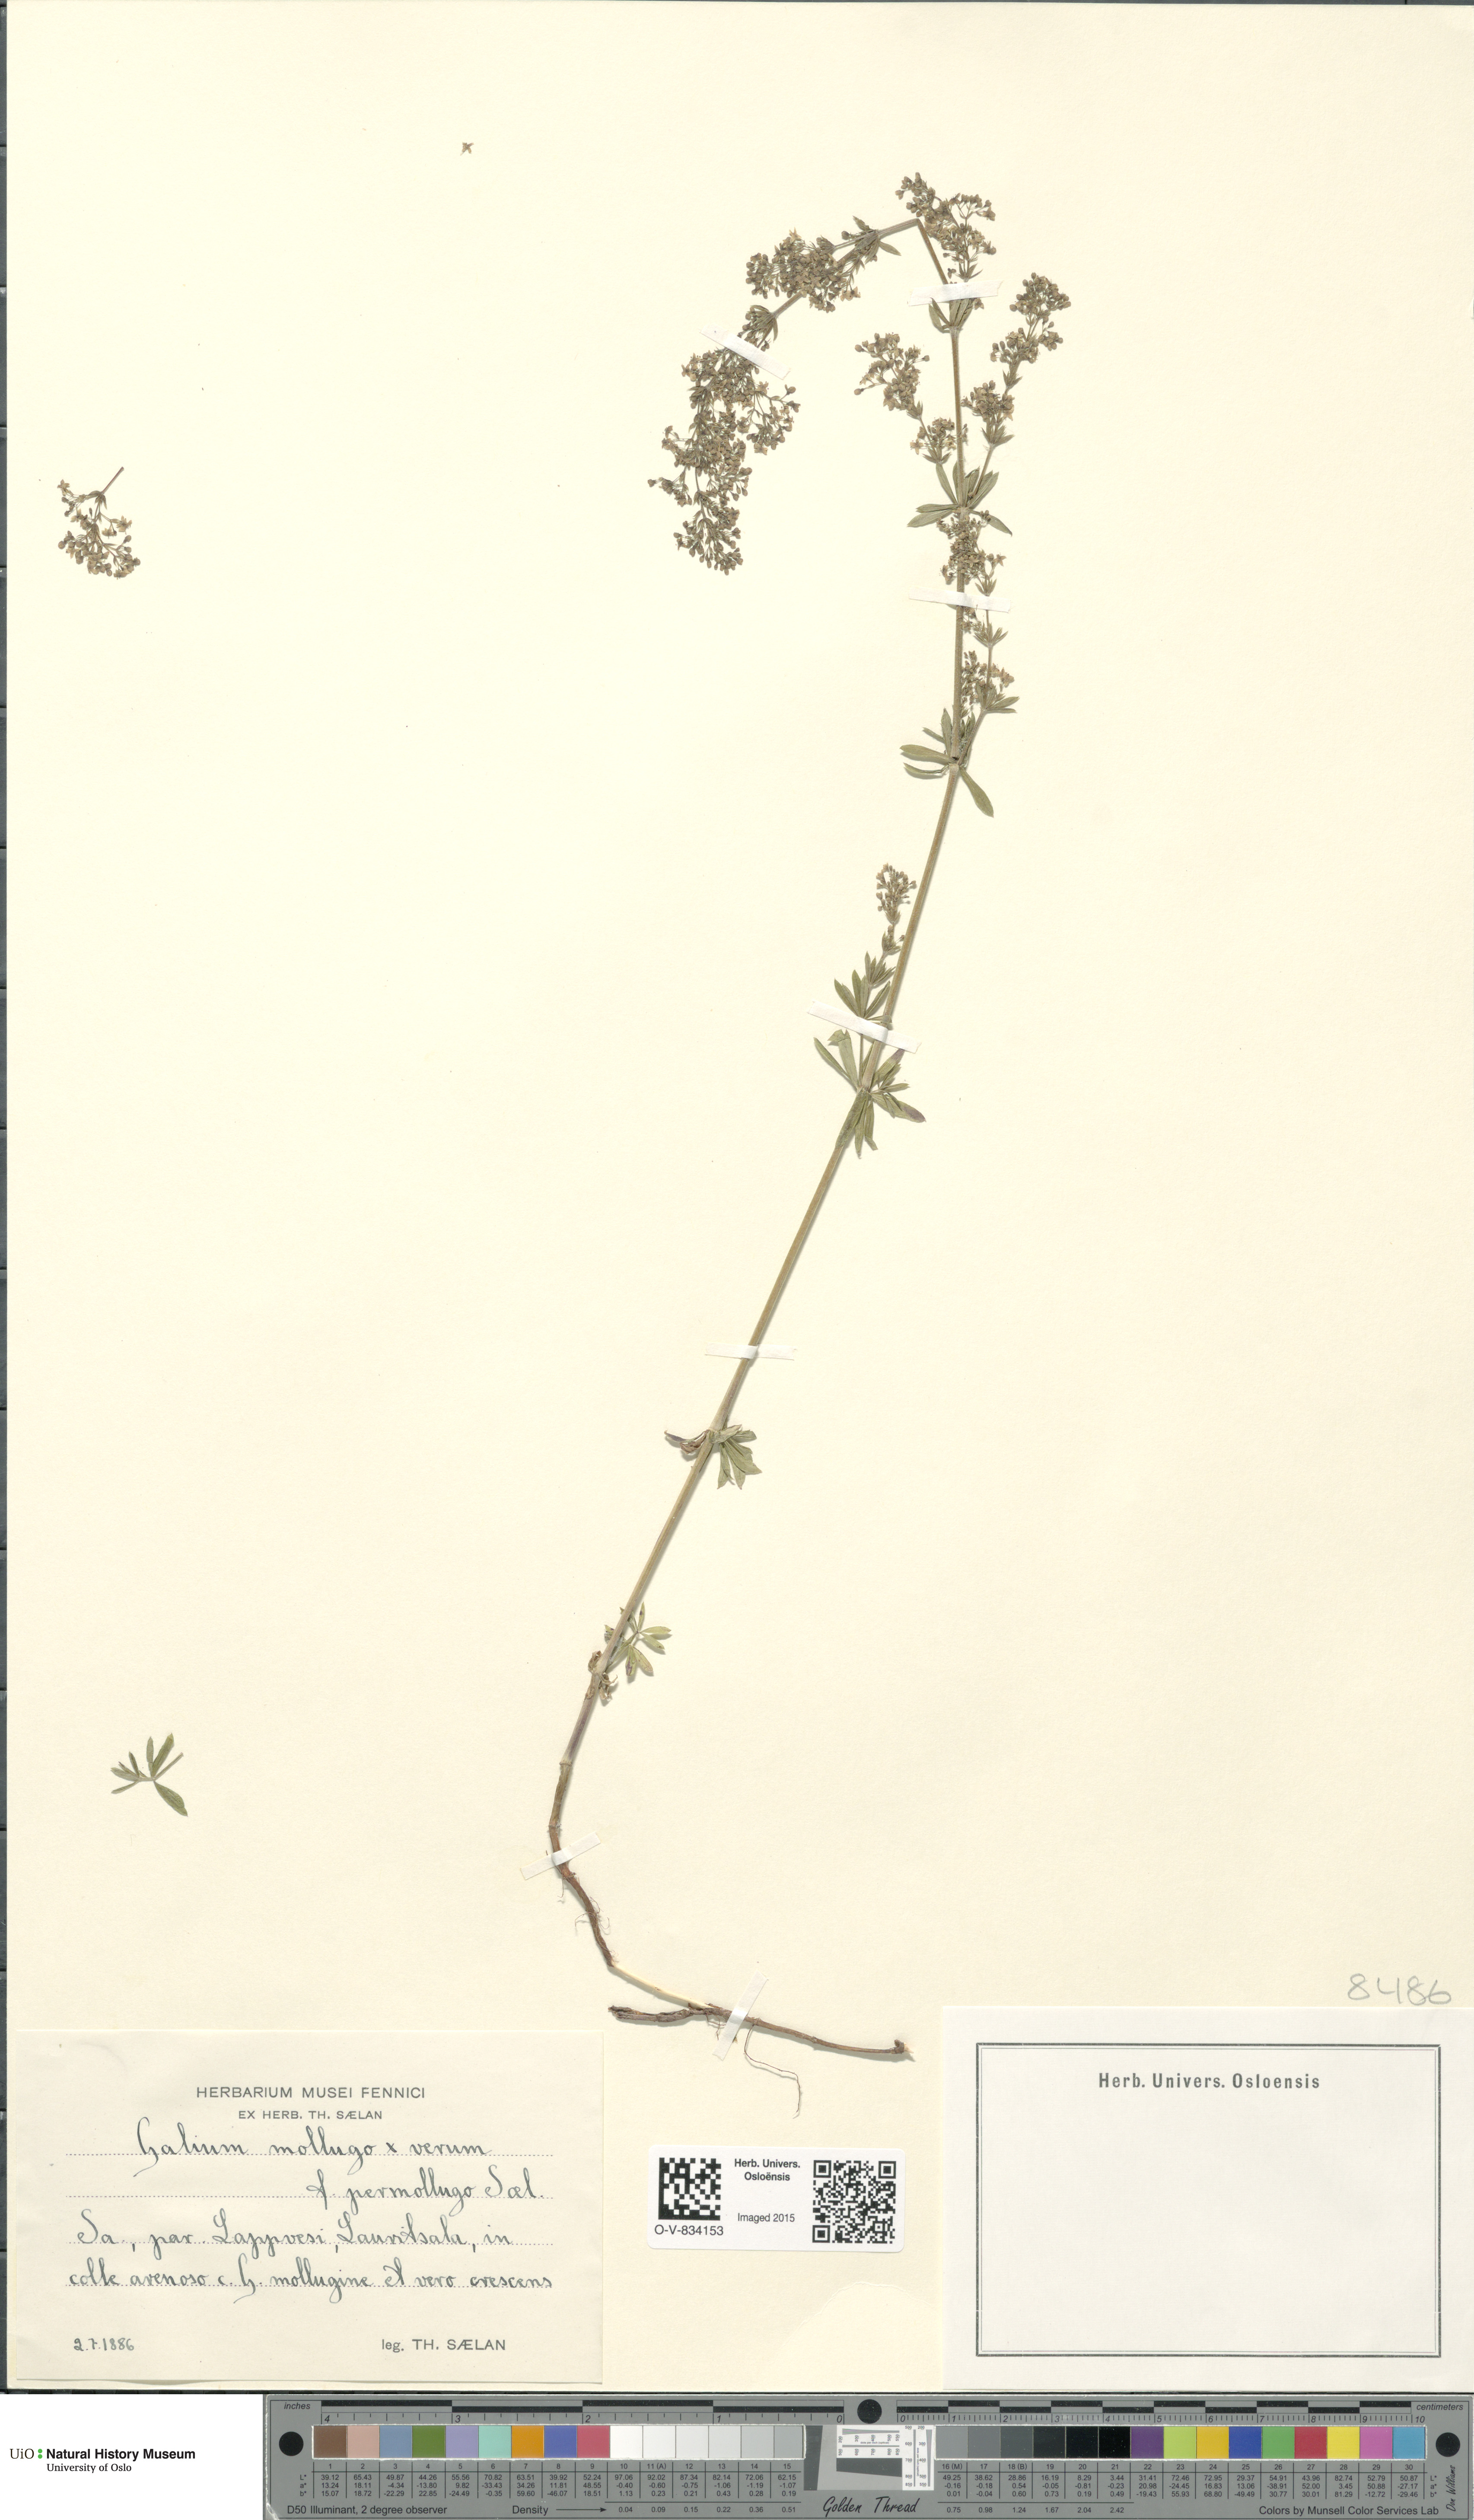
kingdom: Plantae
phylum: Tracheophyta
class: Magnoliopsida
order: Gentianales
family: Rubiaceae
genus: Galium
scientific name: Galium
